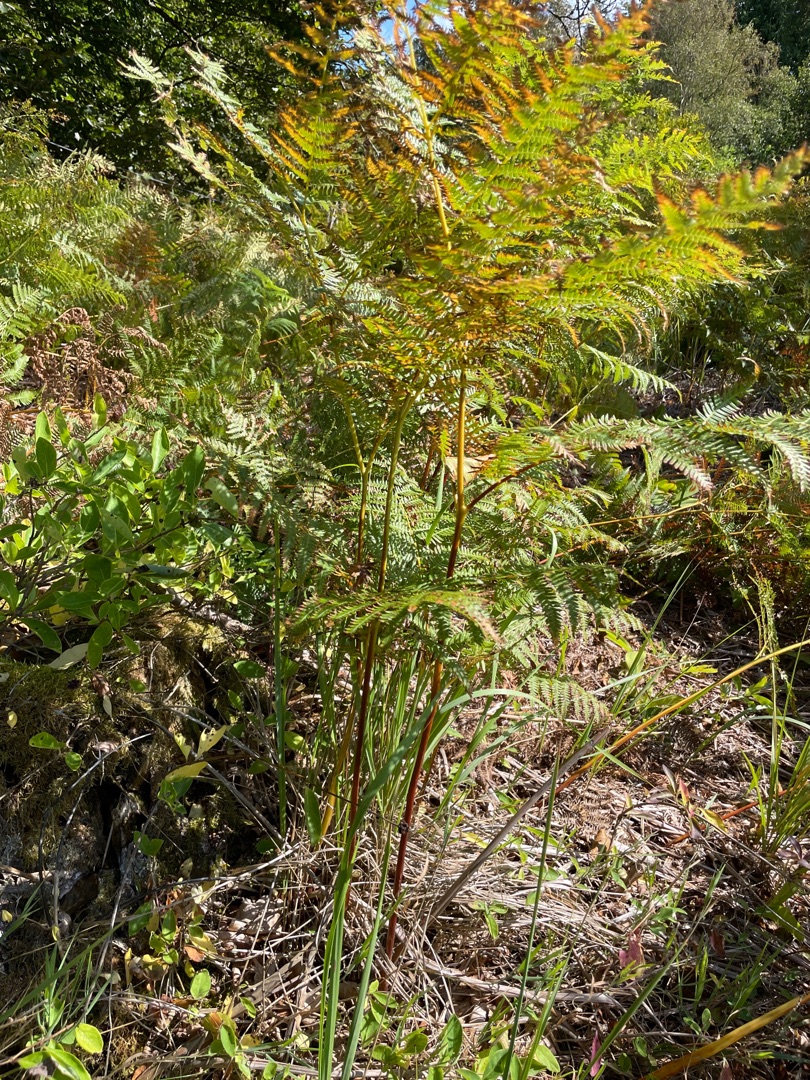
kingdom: Plantae
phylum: Tracheophyta
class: Polypodiopsida
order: Polypodiales
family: Dennstaedtiaceae
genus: Pteridium
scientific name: Pteridium aquilinum
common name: Ørnebregne
